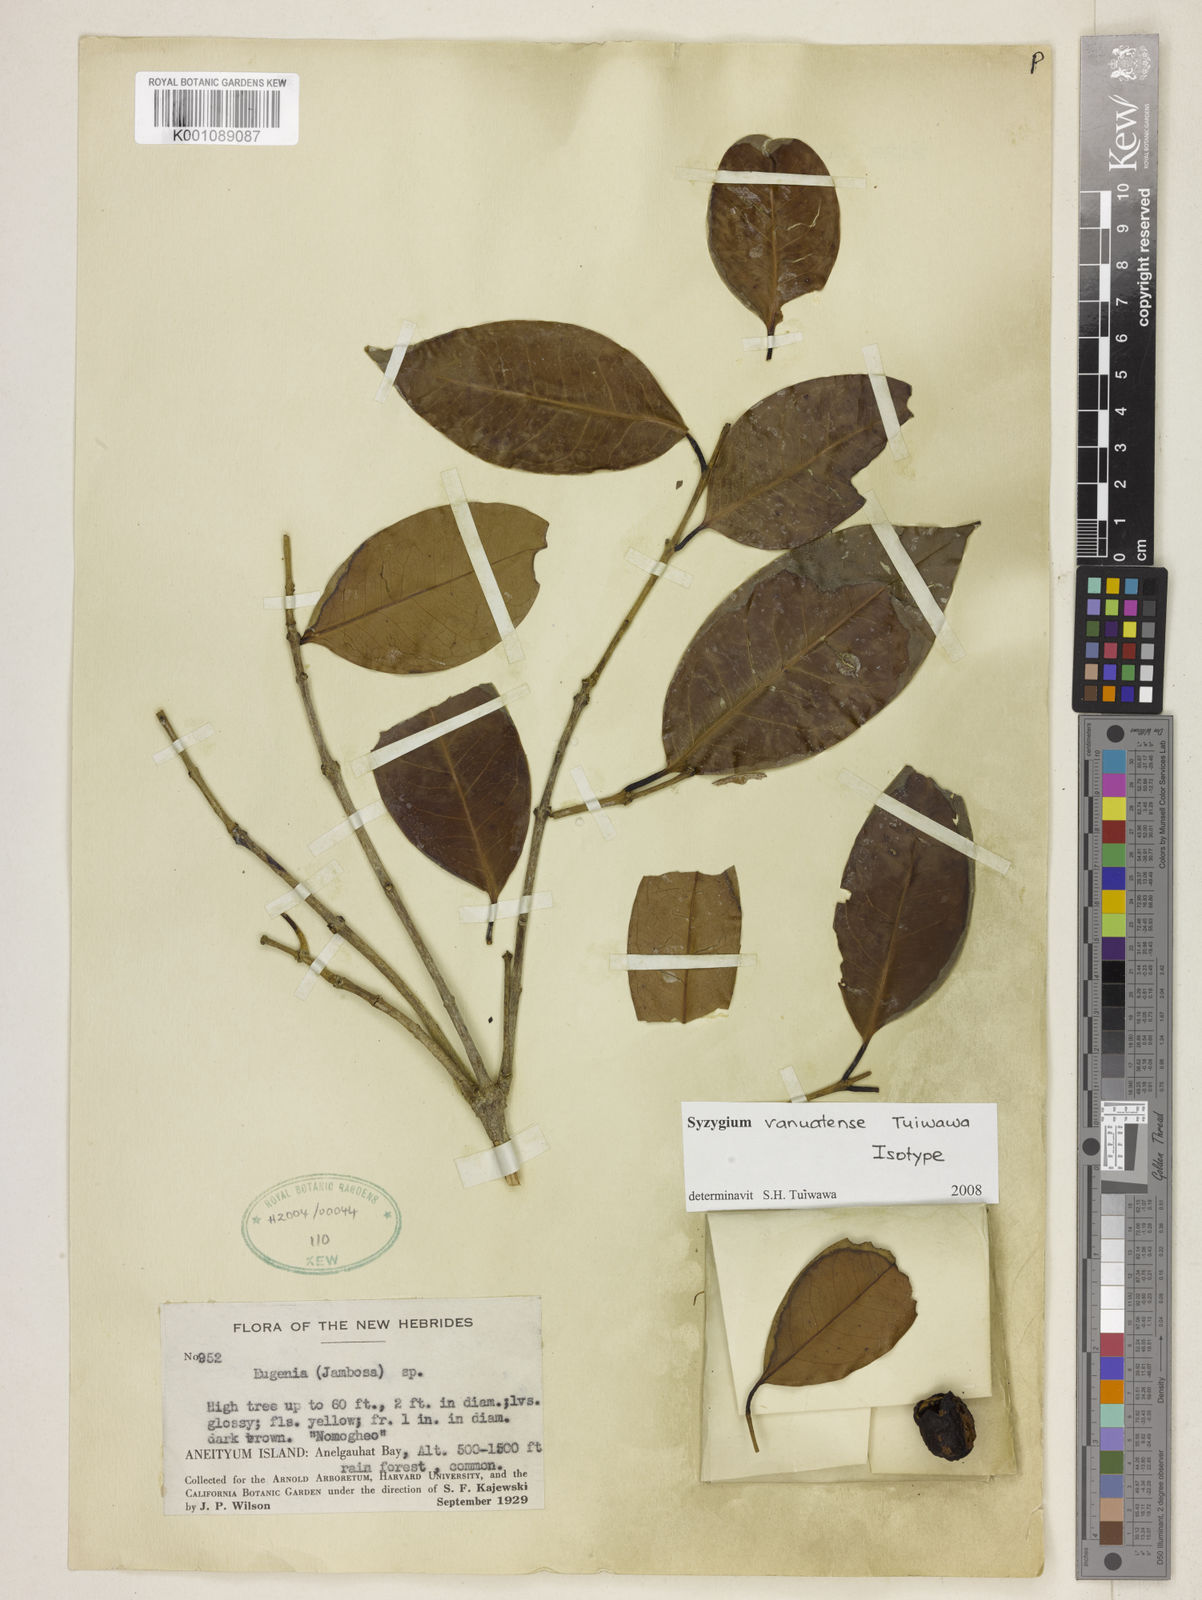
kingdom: Plantae
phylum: Tracheophyta
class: Magnoliopsida
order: Myrtales
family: Myrtaceae
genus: Syzygium
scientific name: Syzygium vanuatuense
